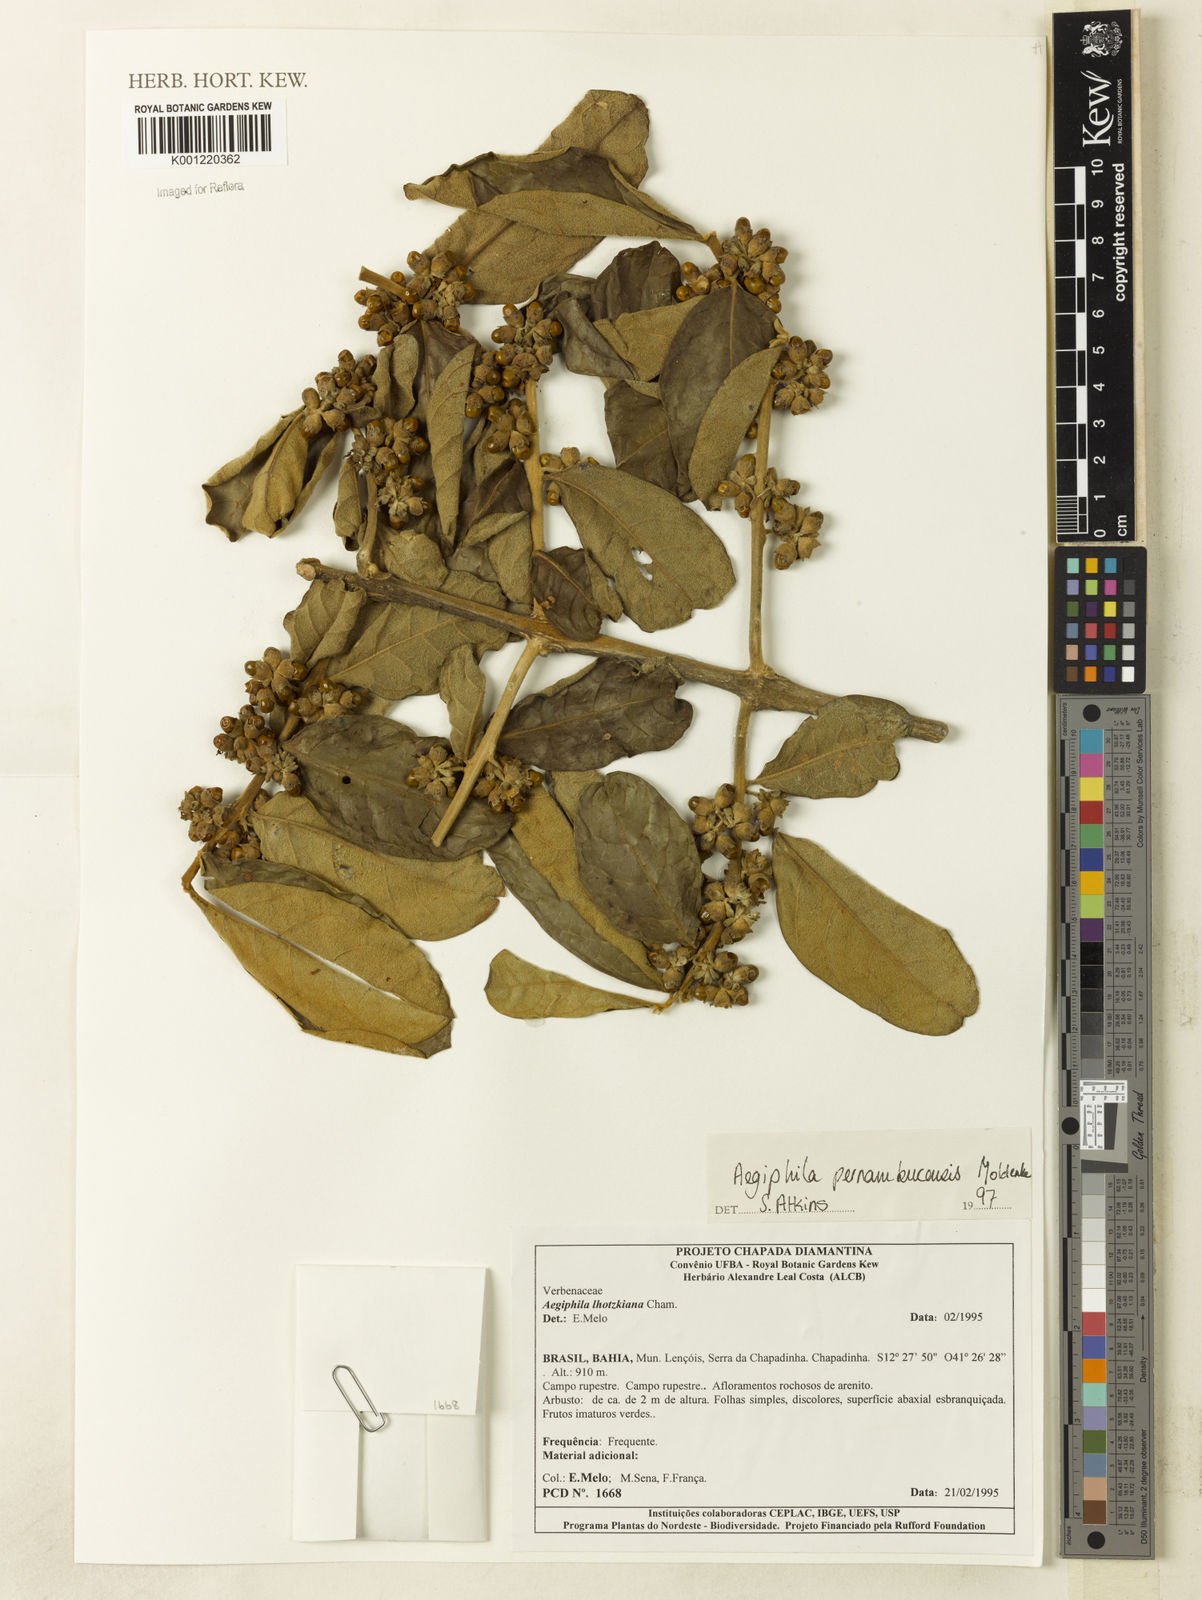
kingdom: Plantae
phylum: Tracheophyta
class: Magnoliopsida
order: Lamiales
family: Lamiaceae
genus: Aegiphila
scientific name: Aegiphila pernambucensis
